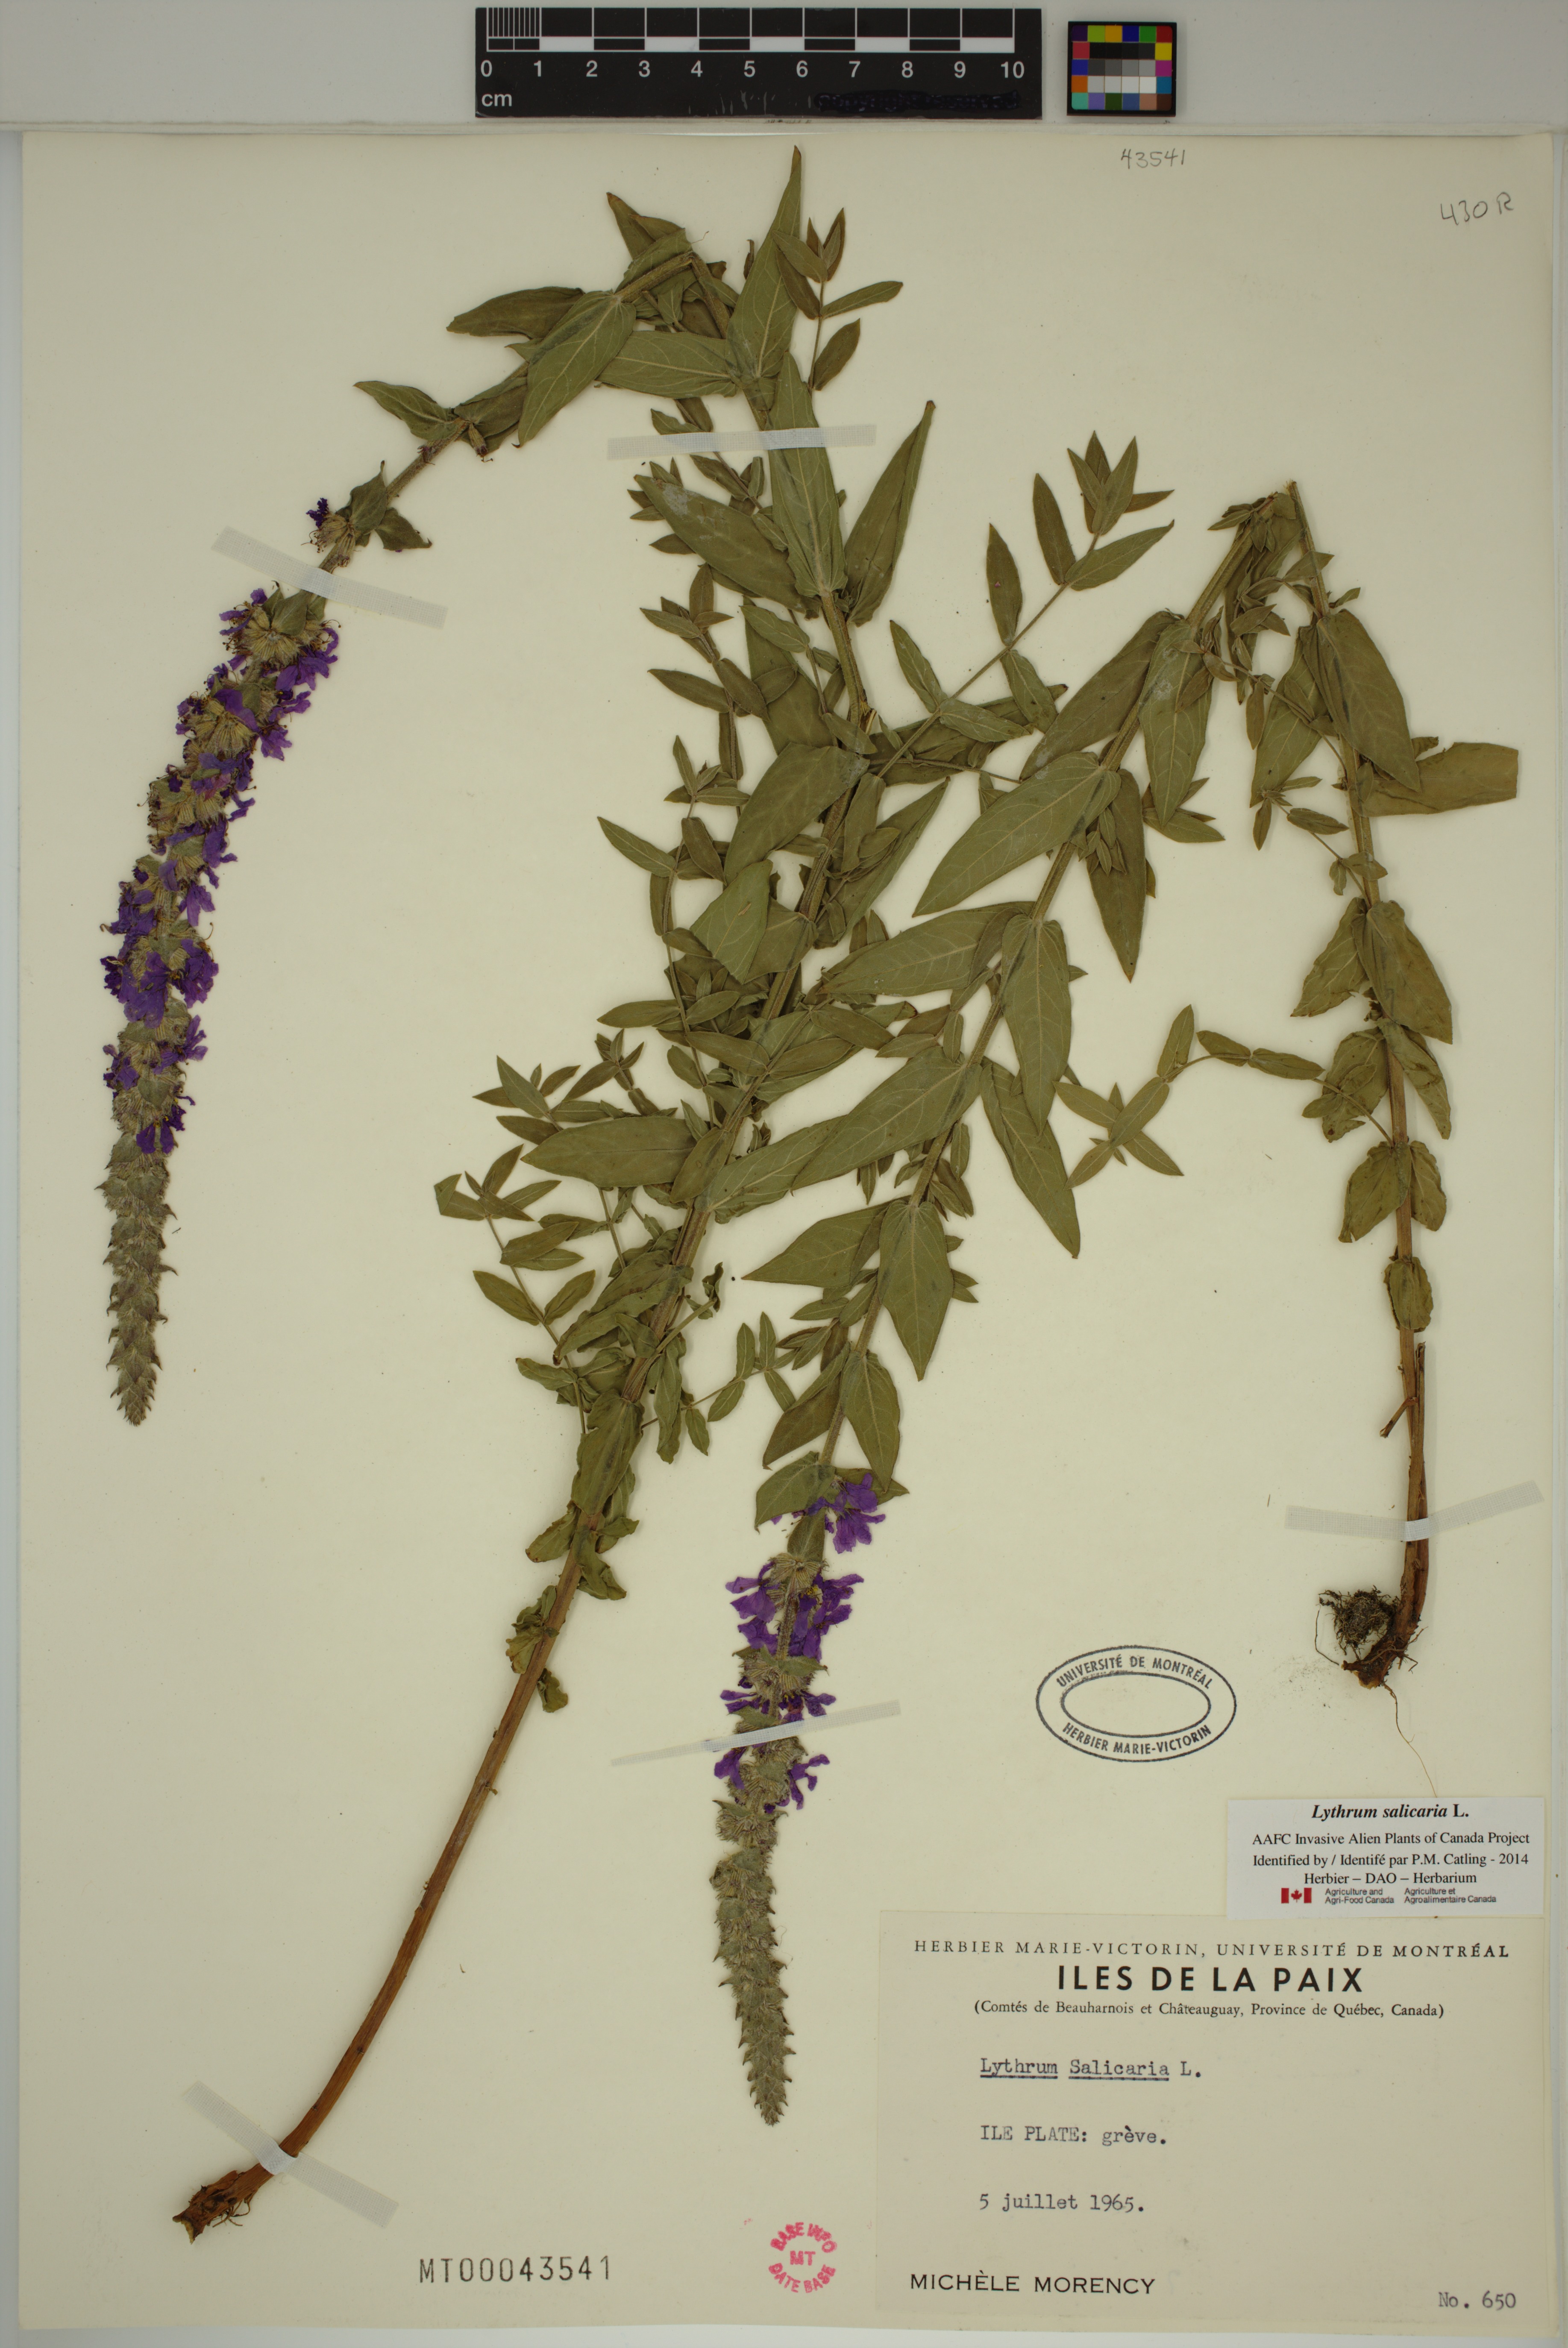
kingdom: Plantae
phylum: Tracheophyta
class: Magnoliopsida
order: Myrtales
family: Lythraceae
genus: Lythrum
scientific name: Lythrum salicaria
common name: Purple loosestrife
